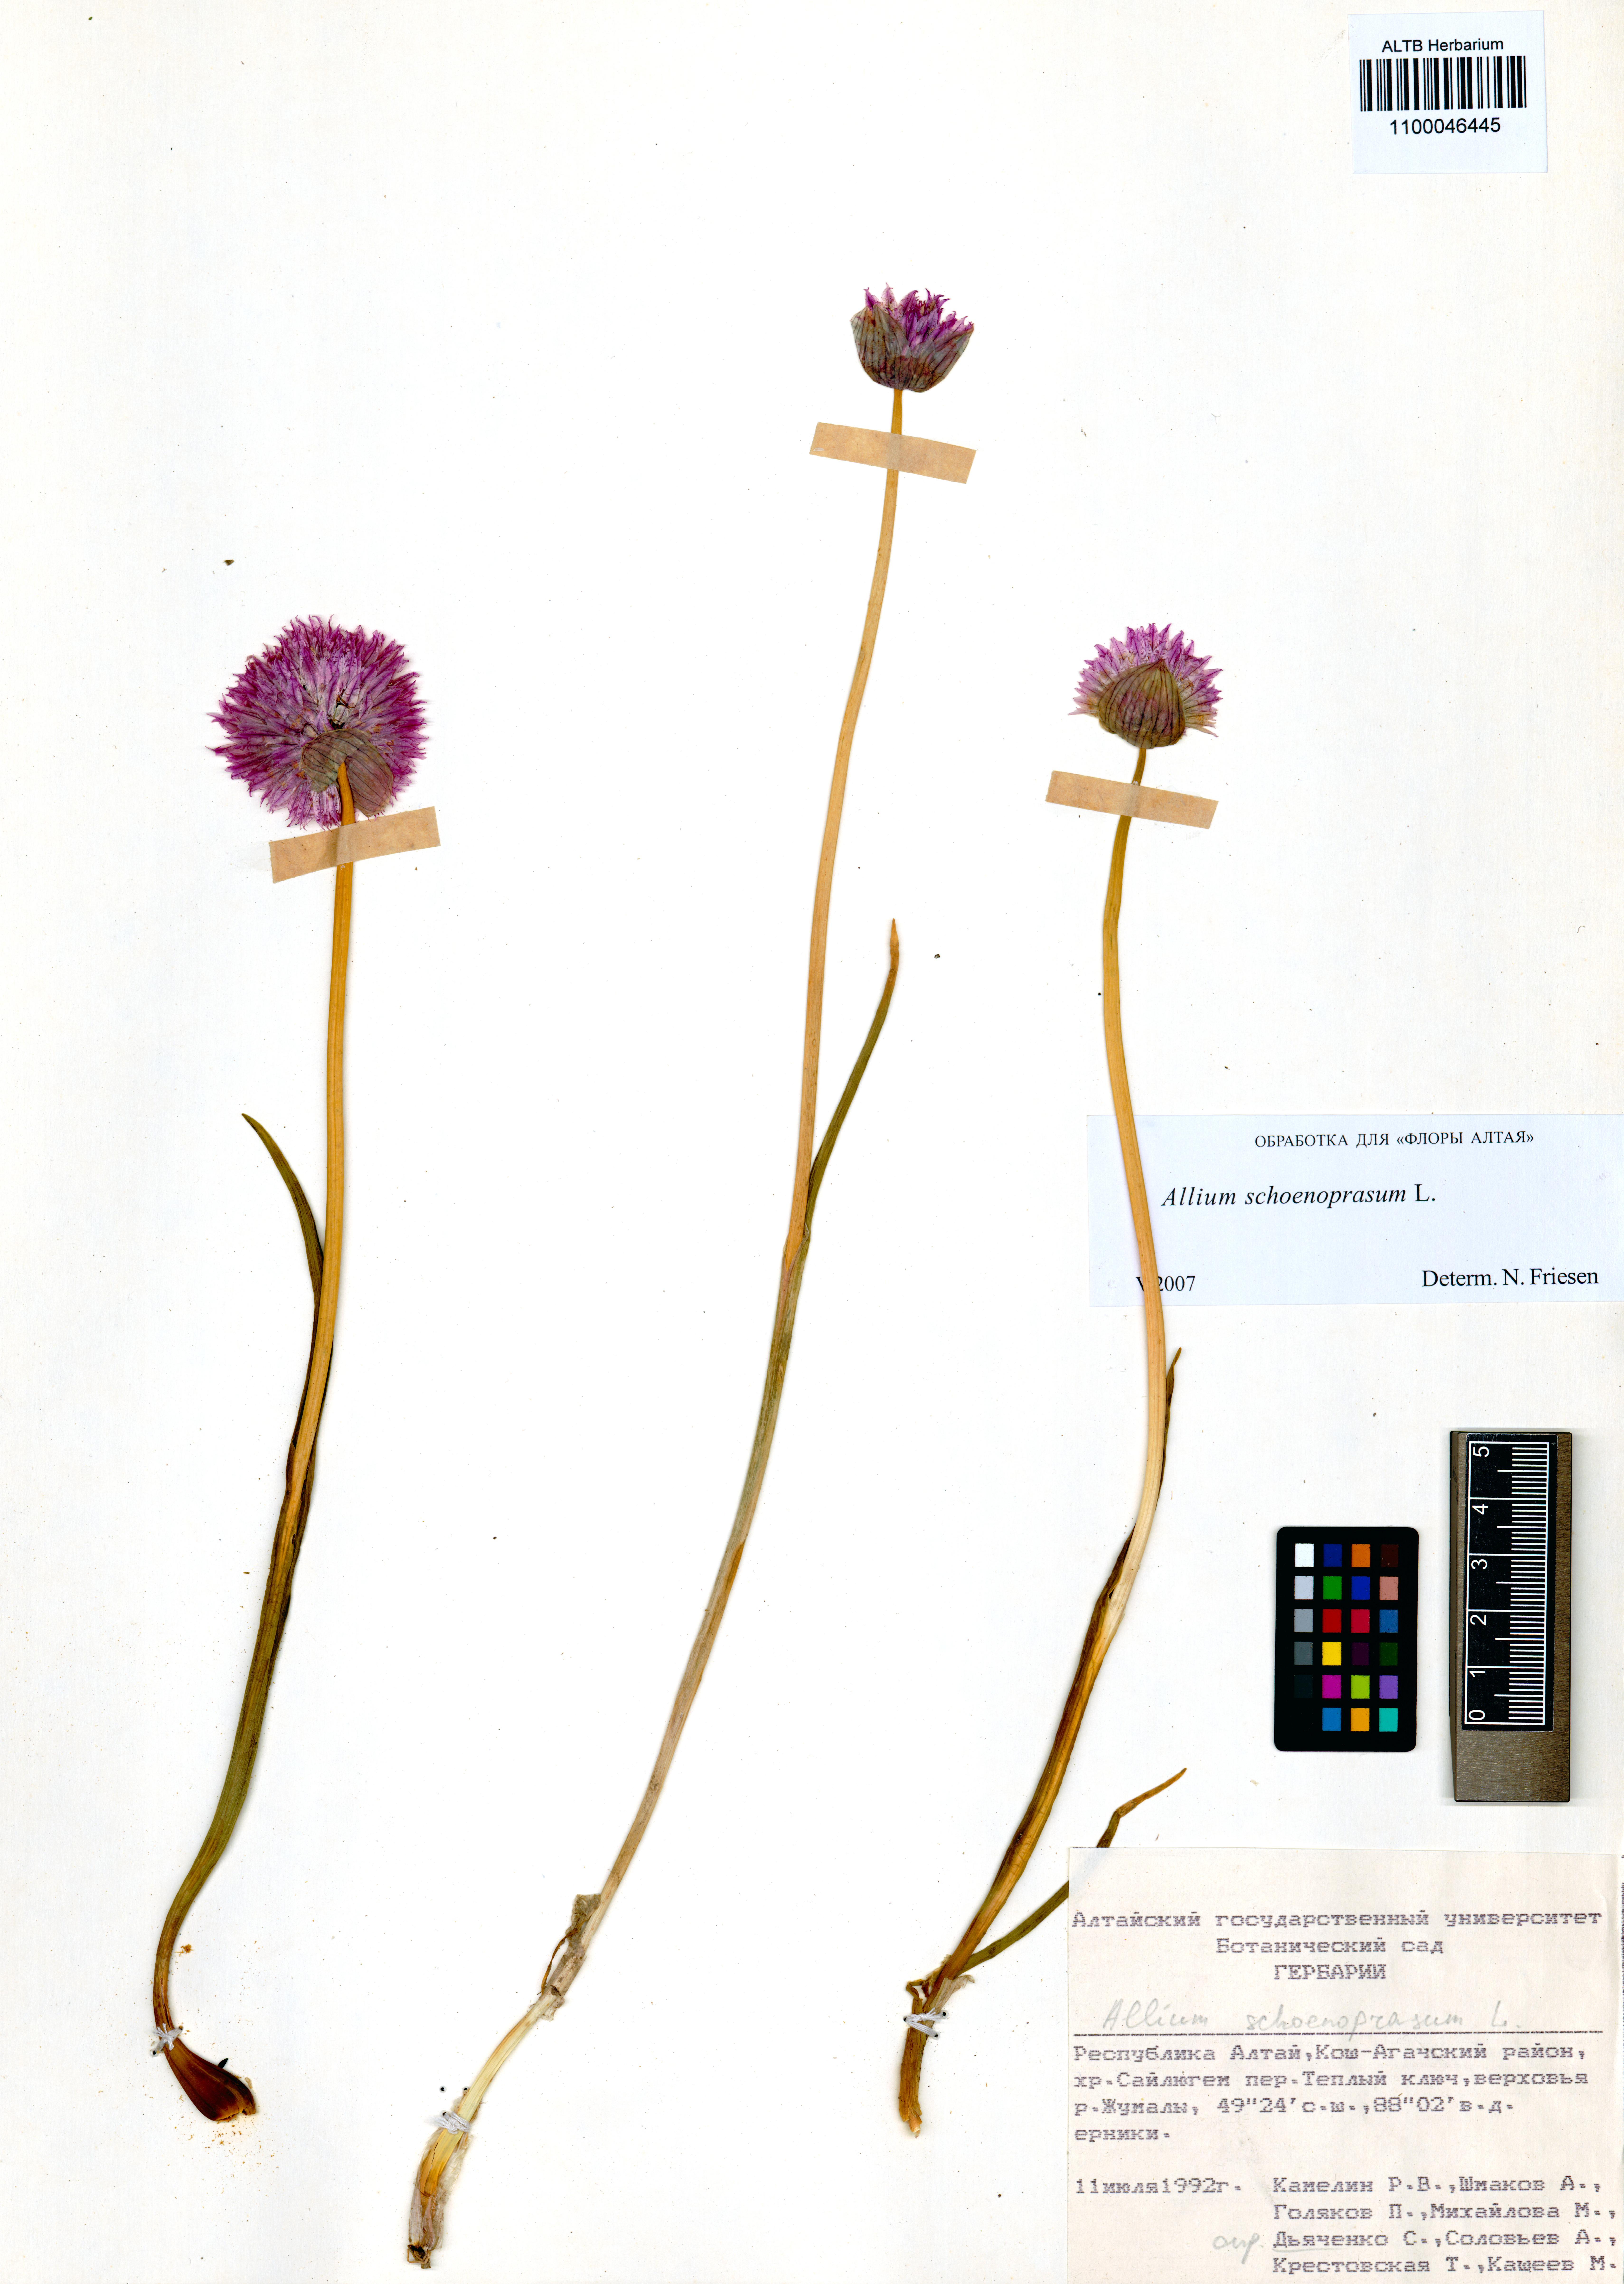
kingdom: Plantae
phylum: Tracheophyta
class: Liliopsida
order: Asparagales
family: Amaryllidaceae
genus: Allium
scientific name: Allium schoenoprasum
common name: Chives
